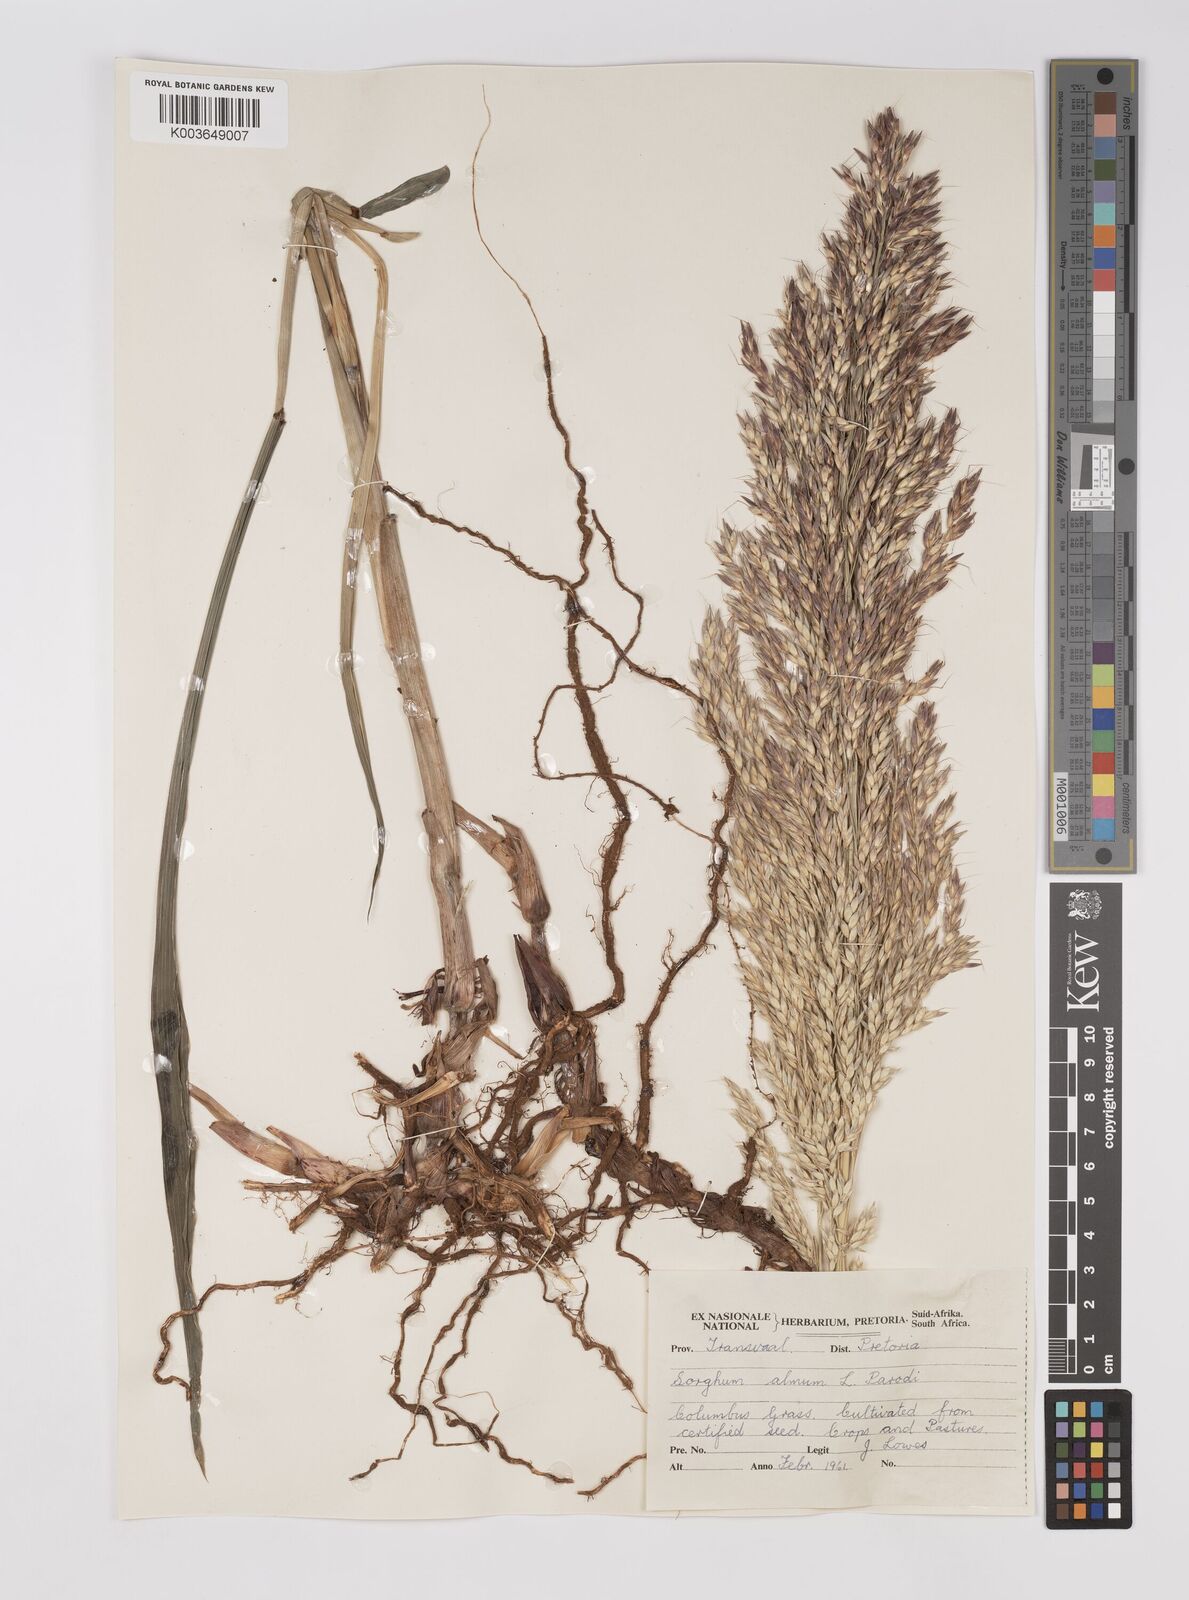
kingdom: Plantae
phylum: Tracheophyta
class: Liliopsida
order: Poales
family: Poaceae
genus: Sorghum
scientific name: Sorghum almum
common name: Columbus grass
